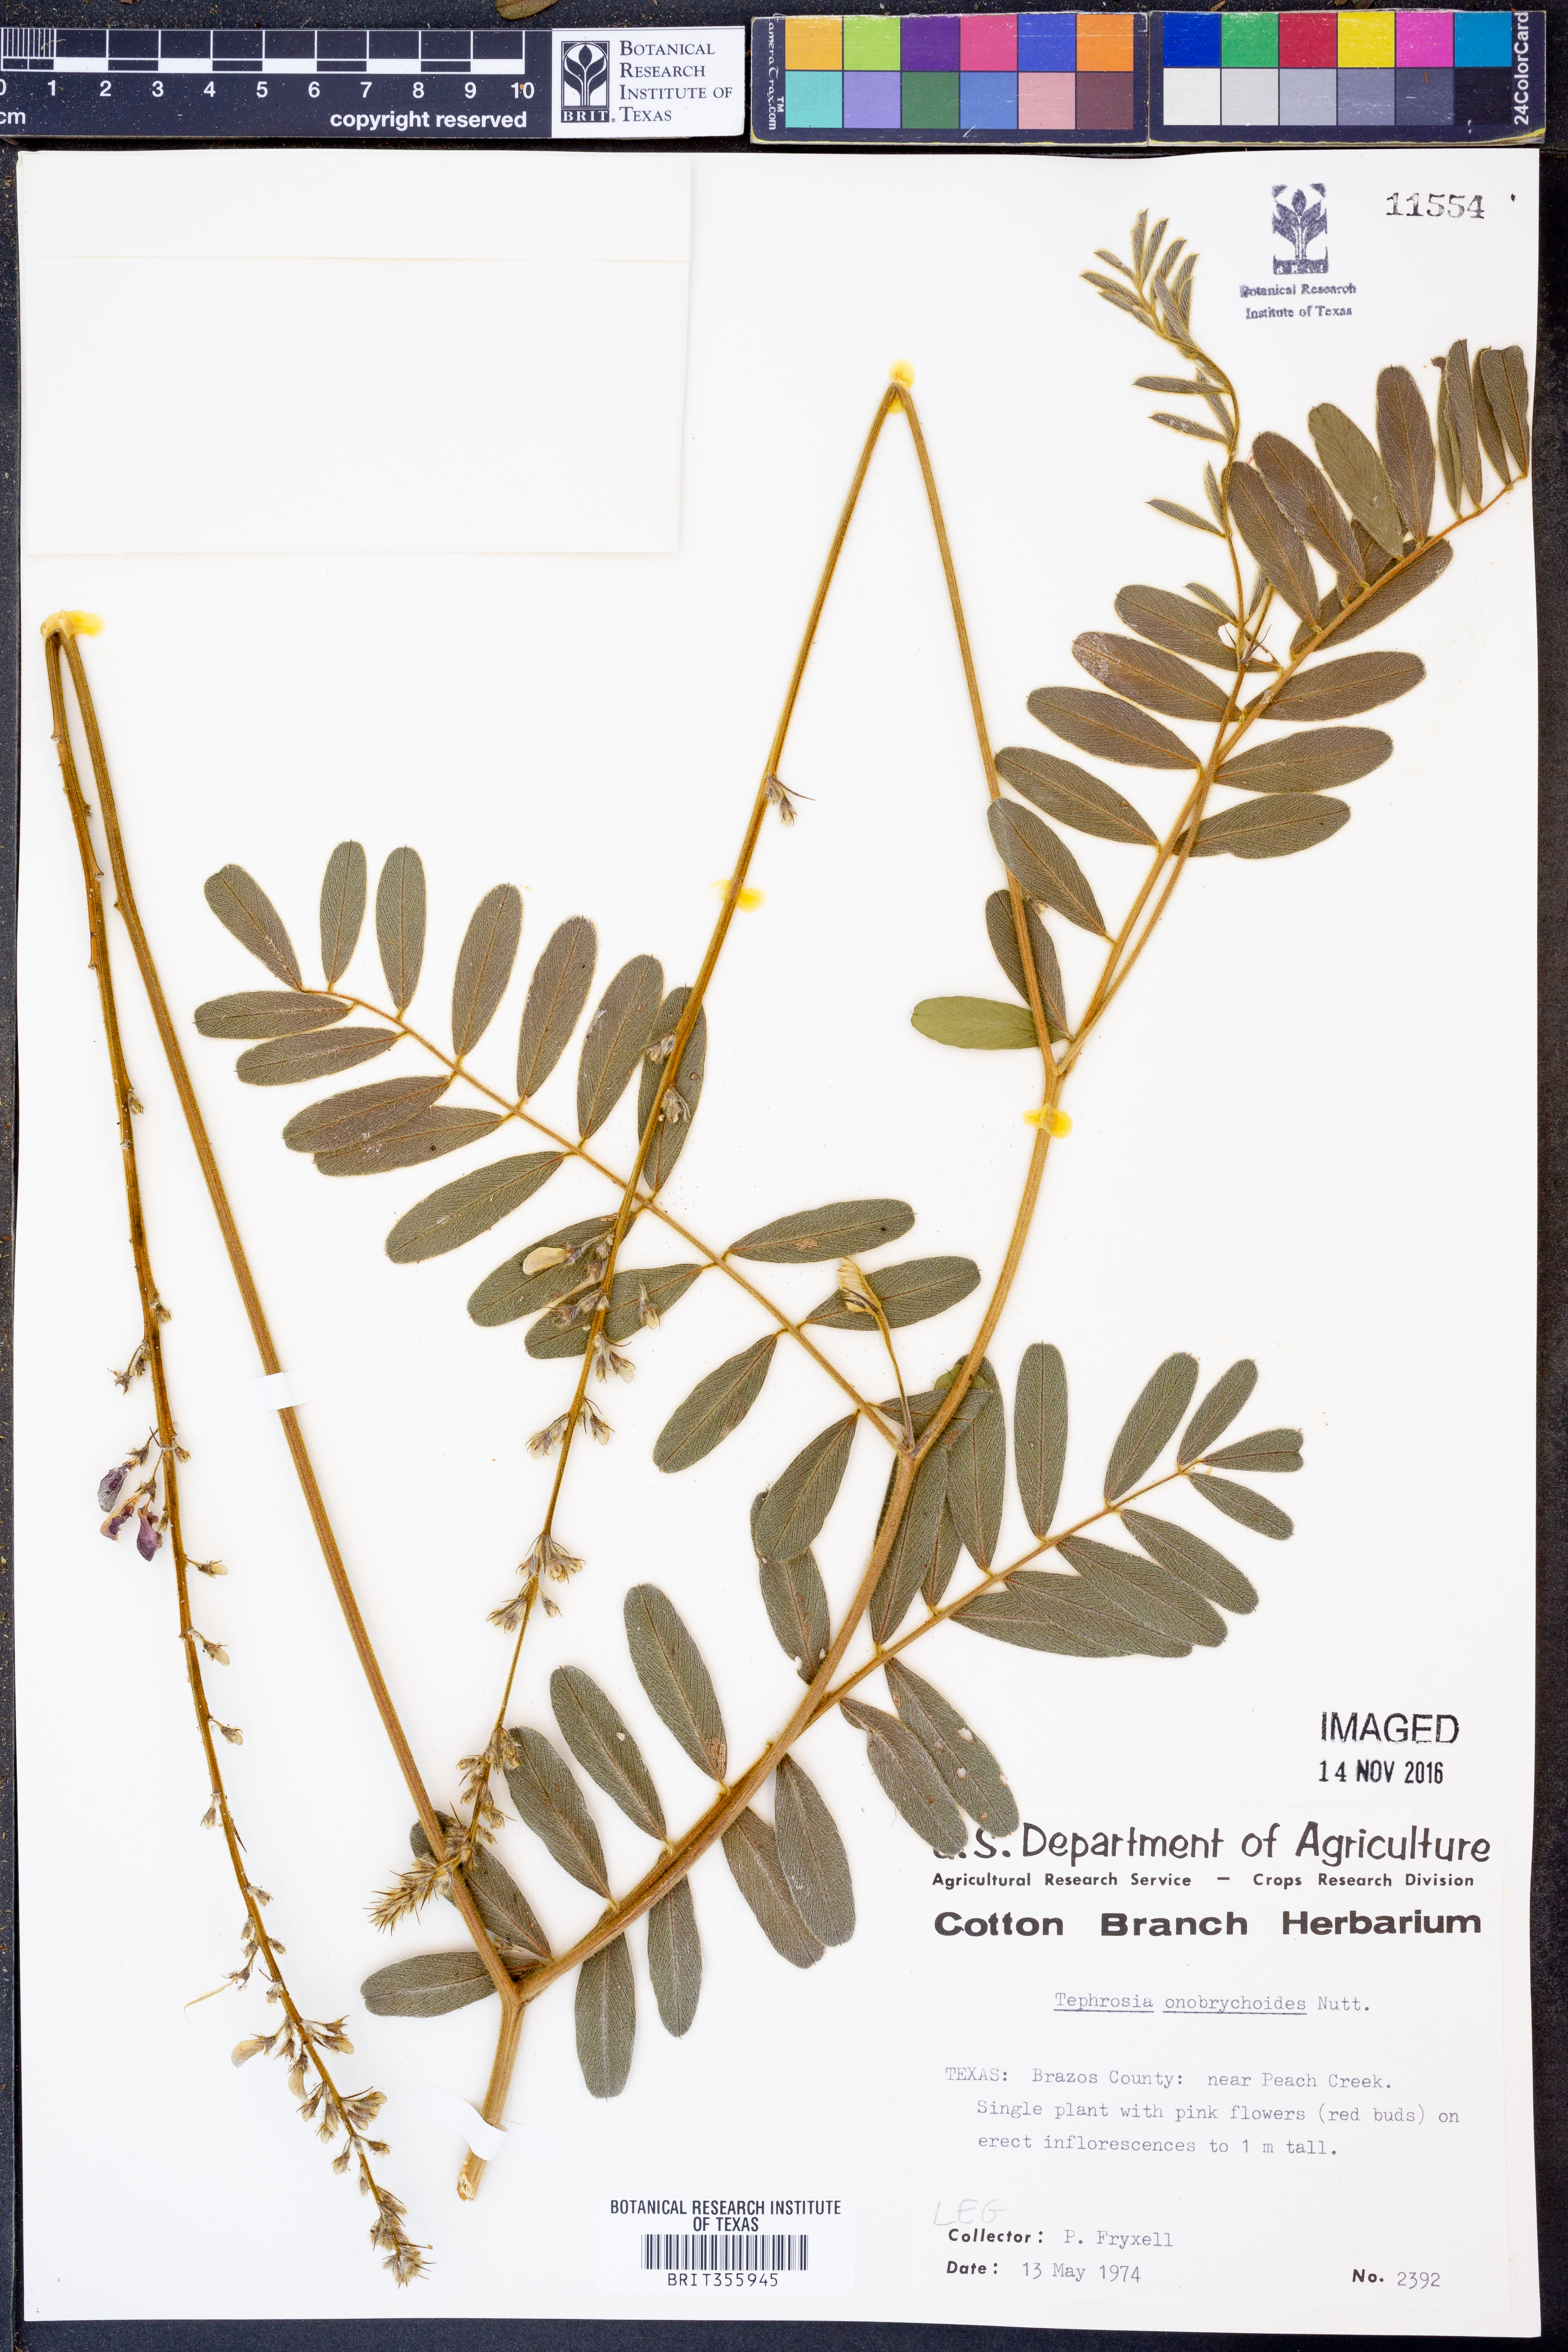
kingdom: Plantae
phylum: Tracheophyta
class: Magnoliopsida
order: Fabales
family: Fabaceae
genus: Tephrosia
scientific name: Tephrosia onobrychoides
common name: Multi-bloom hoary-pea
